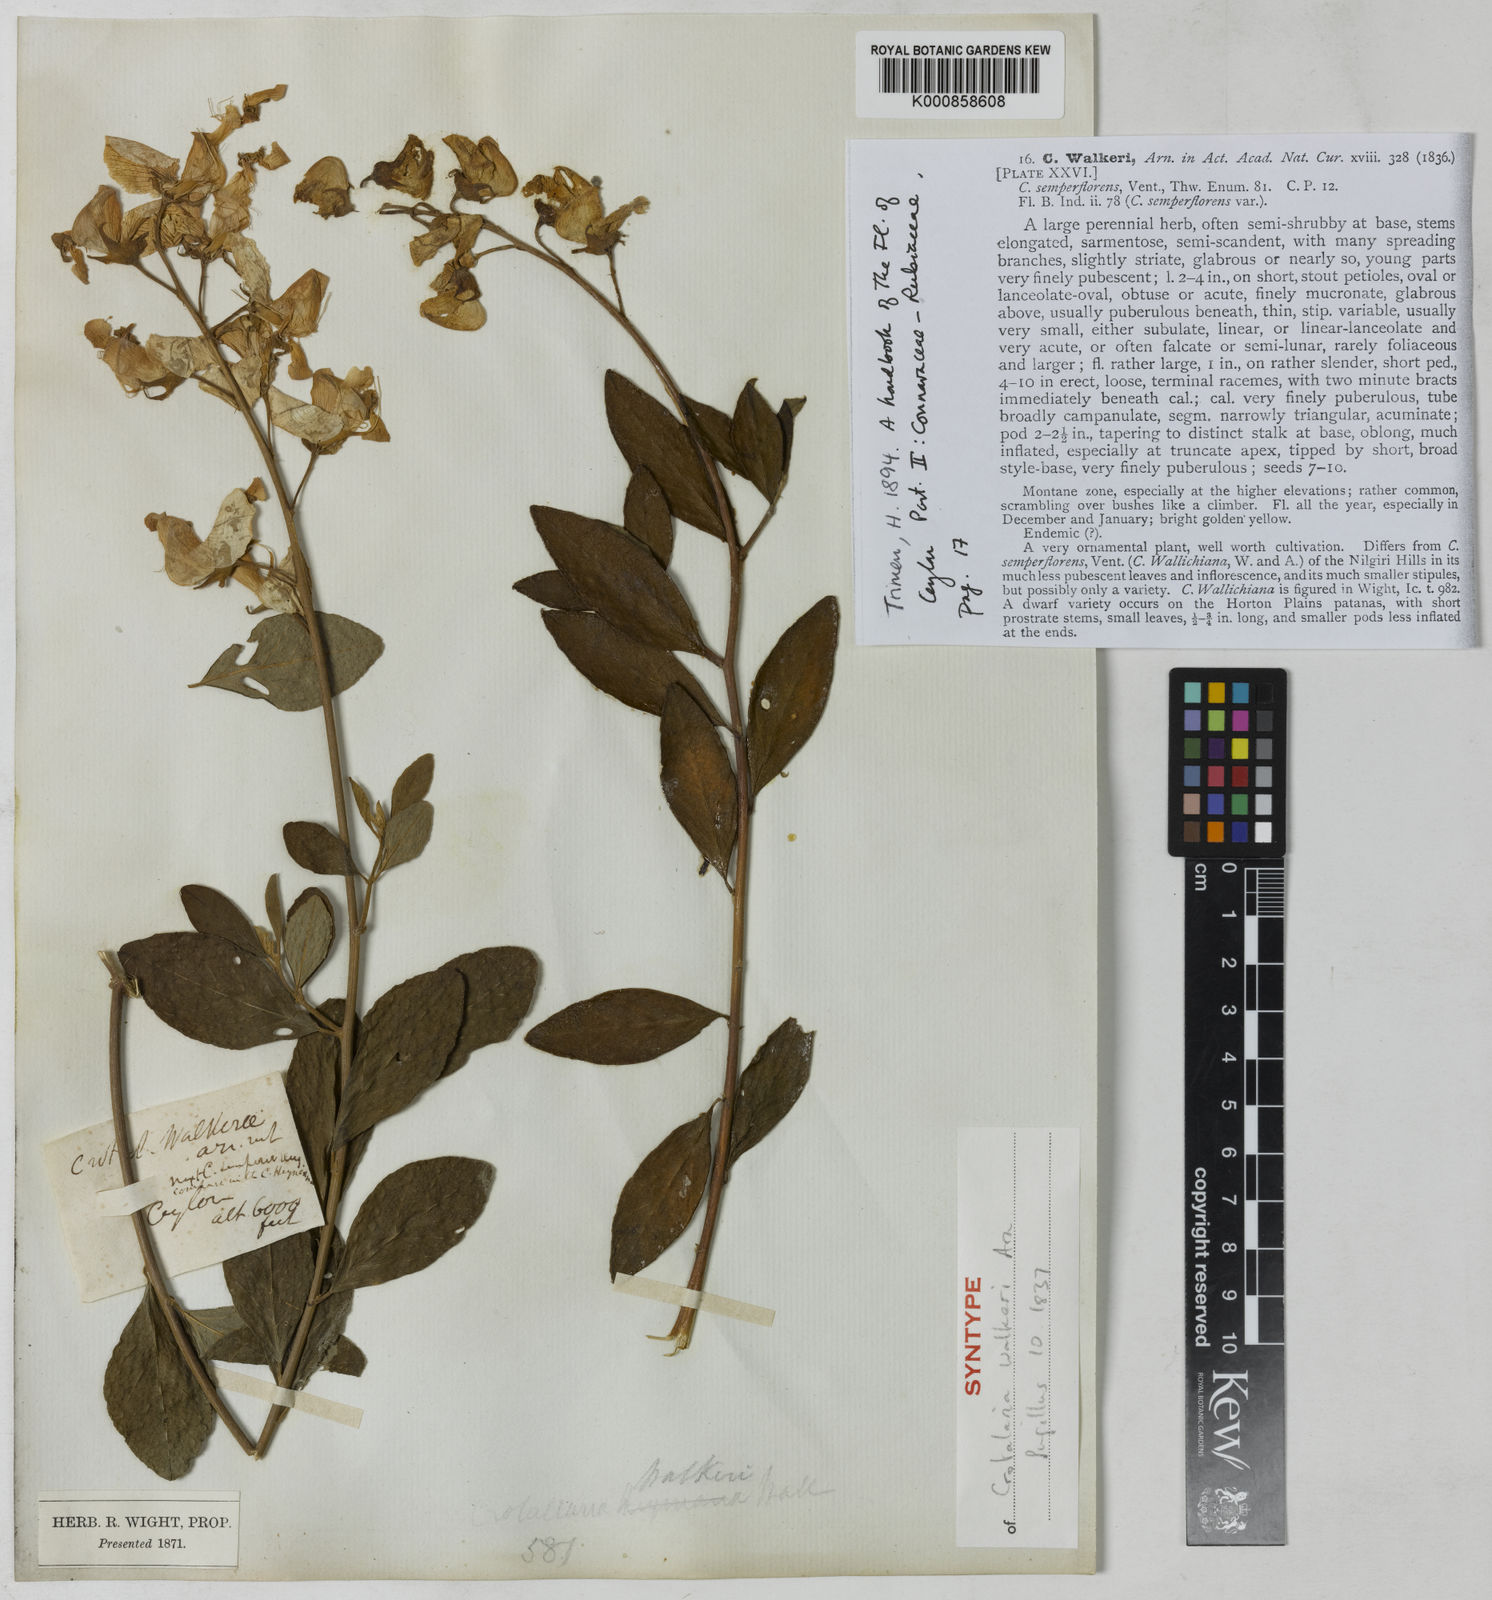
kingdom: Plantae
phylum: Tracheophyta
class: Magnoliopsida
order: Fabales
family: Fabaceae
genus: Crotalaria
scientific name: Crotalaria walkeri
